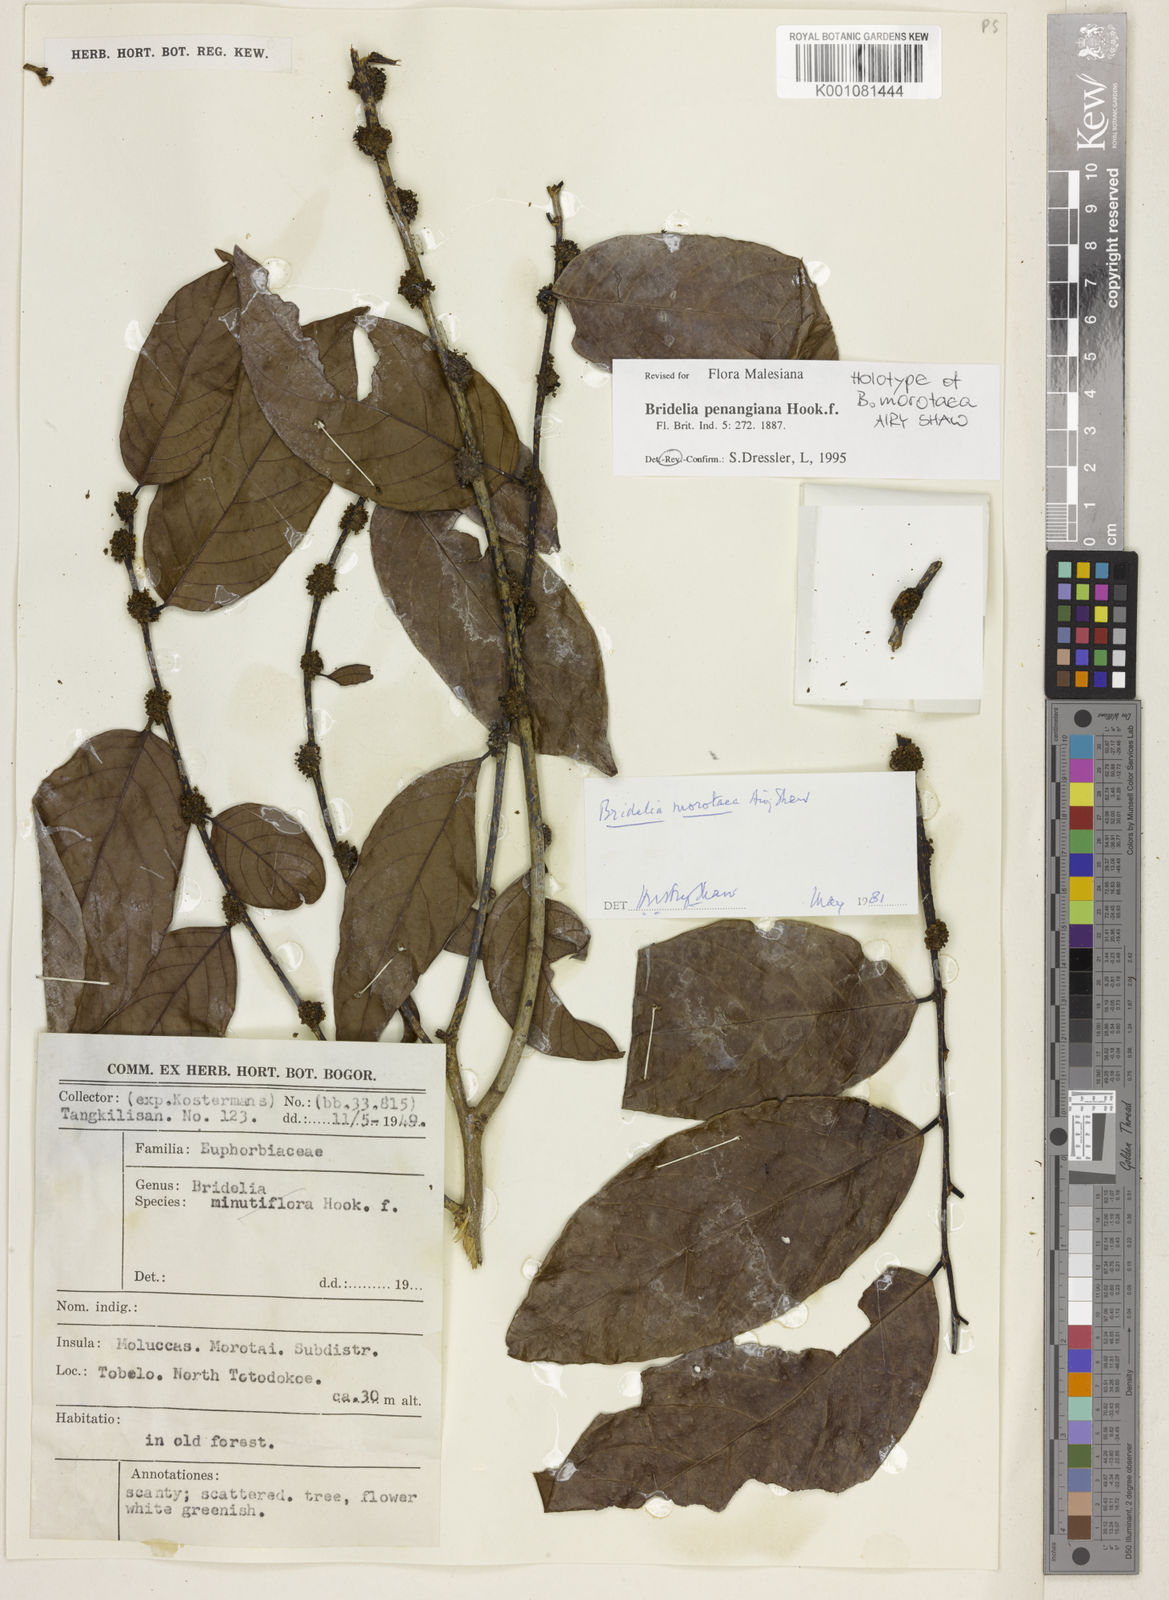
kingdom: Plantae
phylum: Tracheophyta
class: Magnoliopsida
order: Malpighiales
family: Phyllanthaceae
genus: Bridelia
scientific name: Bridelia insulana
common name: Grey-birch
